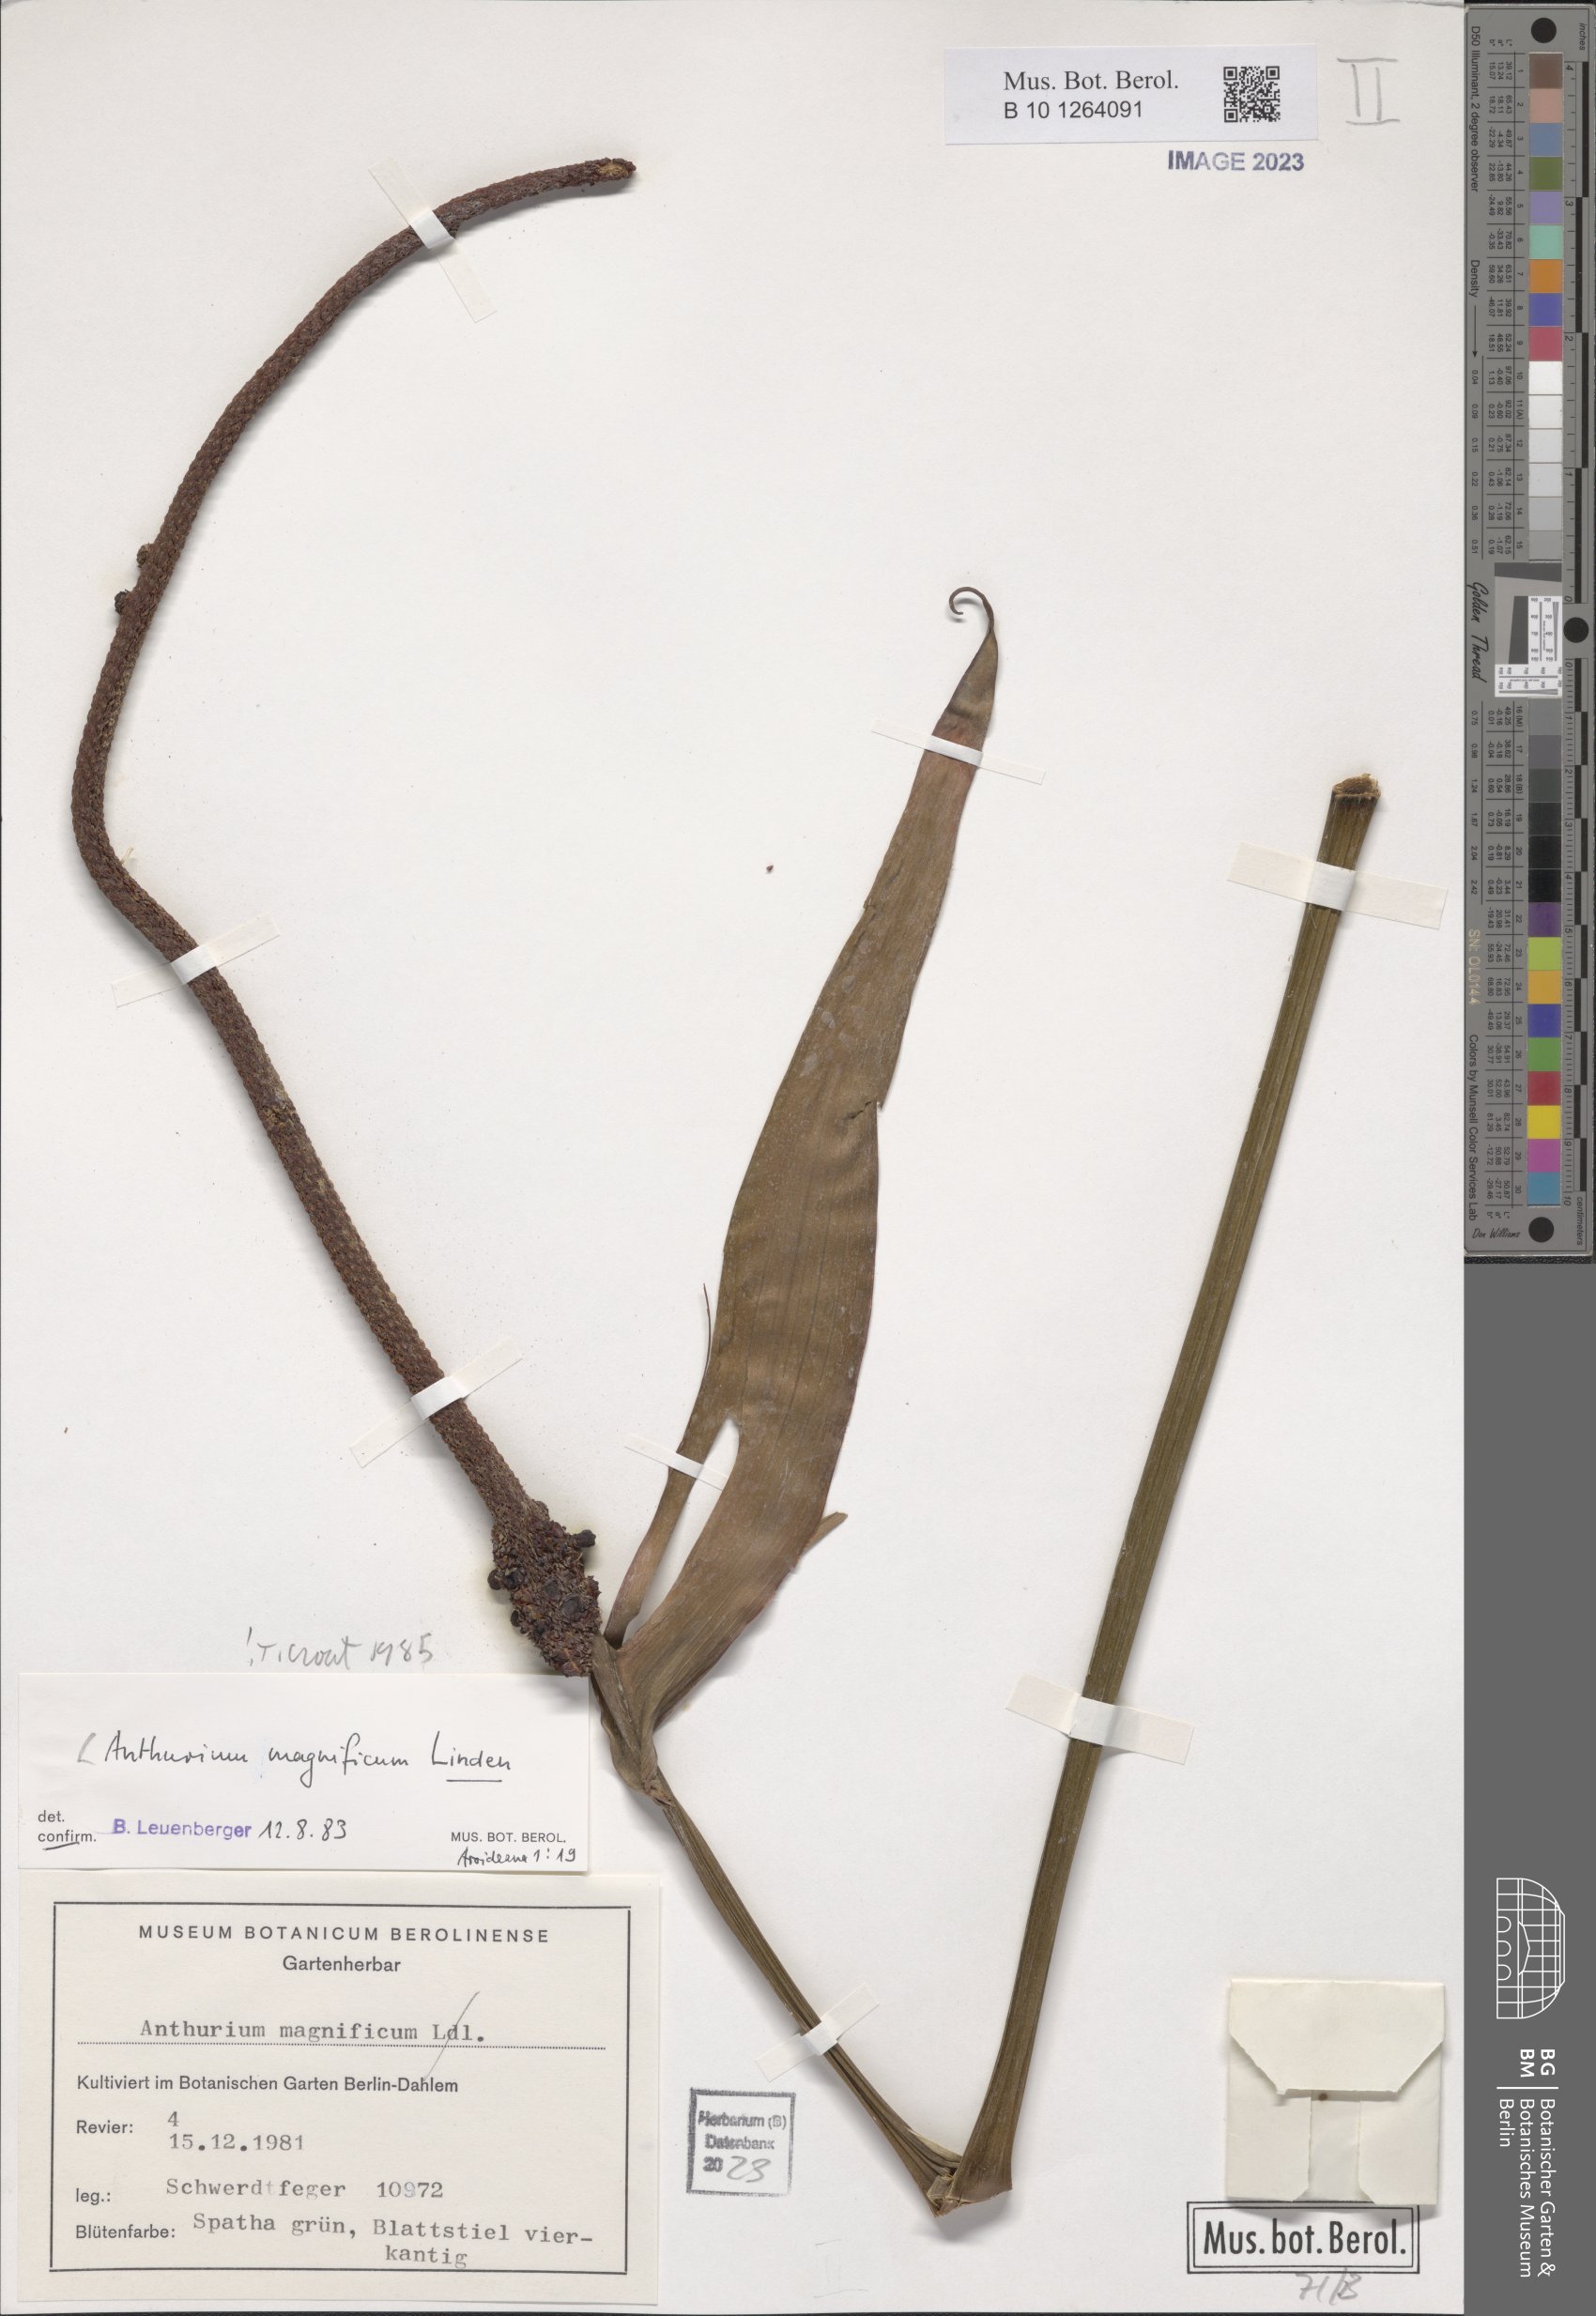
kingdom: Plantae
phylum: Tracheophyta
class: Liliopsida
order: Alismatales
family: Araceae
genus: Anthurium
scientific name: Anthurium magnificum
